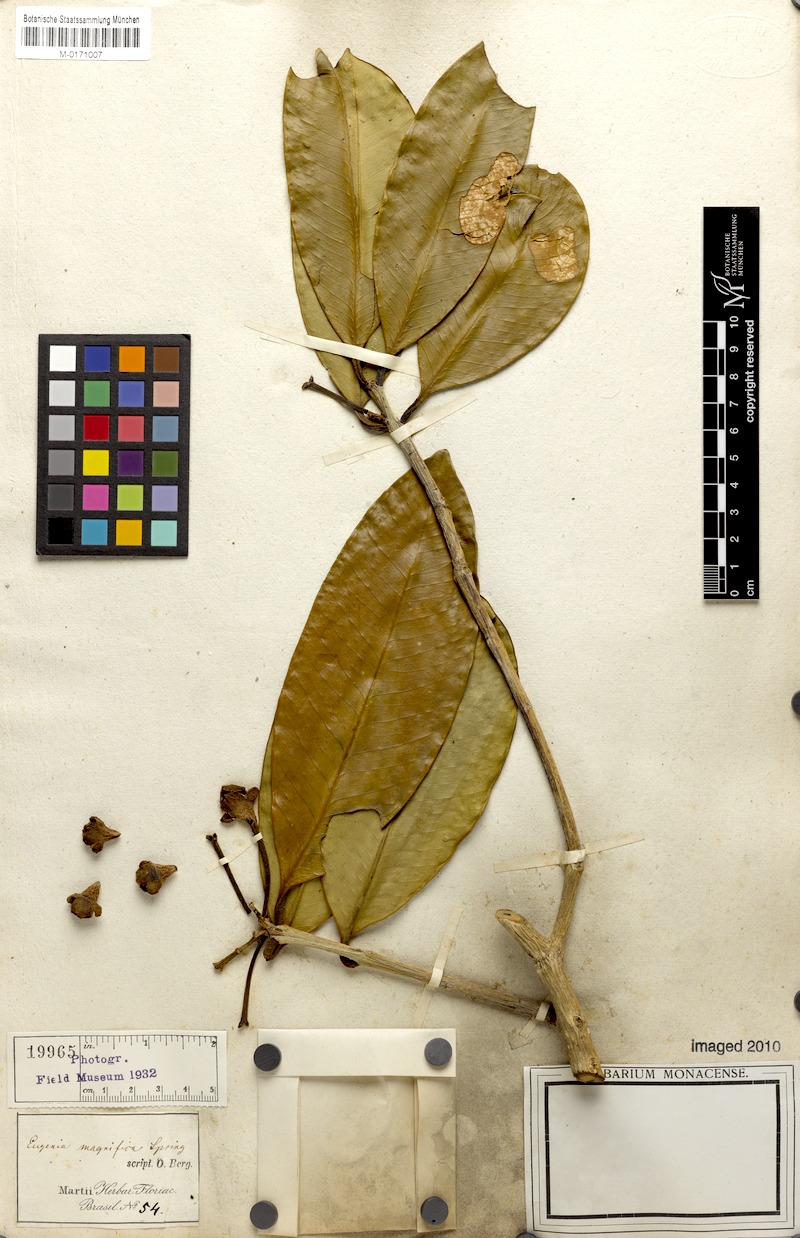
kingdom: Plantae
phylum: Tracheophyta
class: Magnoliopsida
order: Myrtales
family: Myrtaceae
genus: Eugenia
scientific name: Eugenia magnifica
